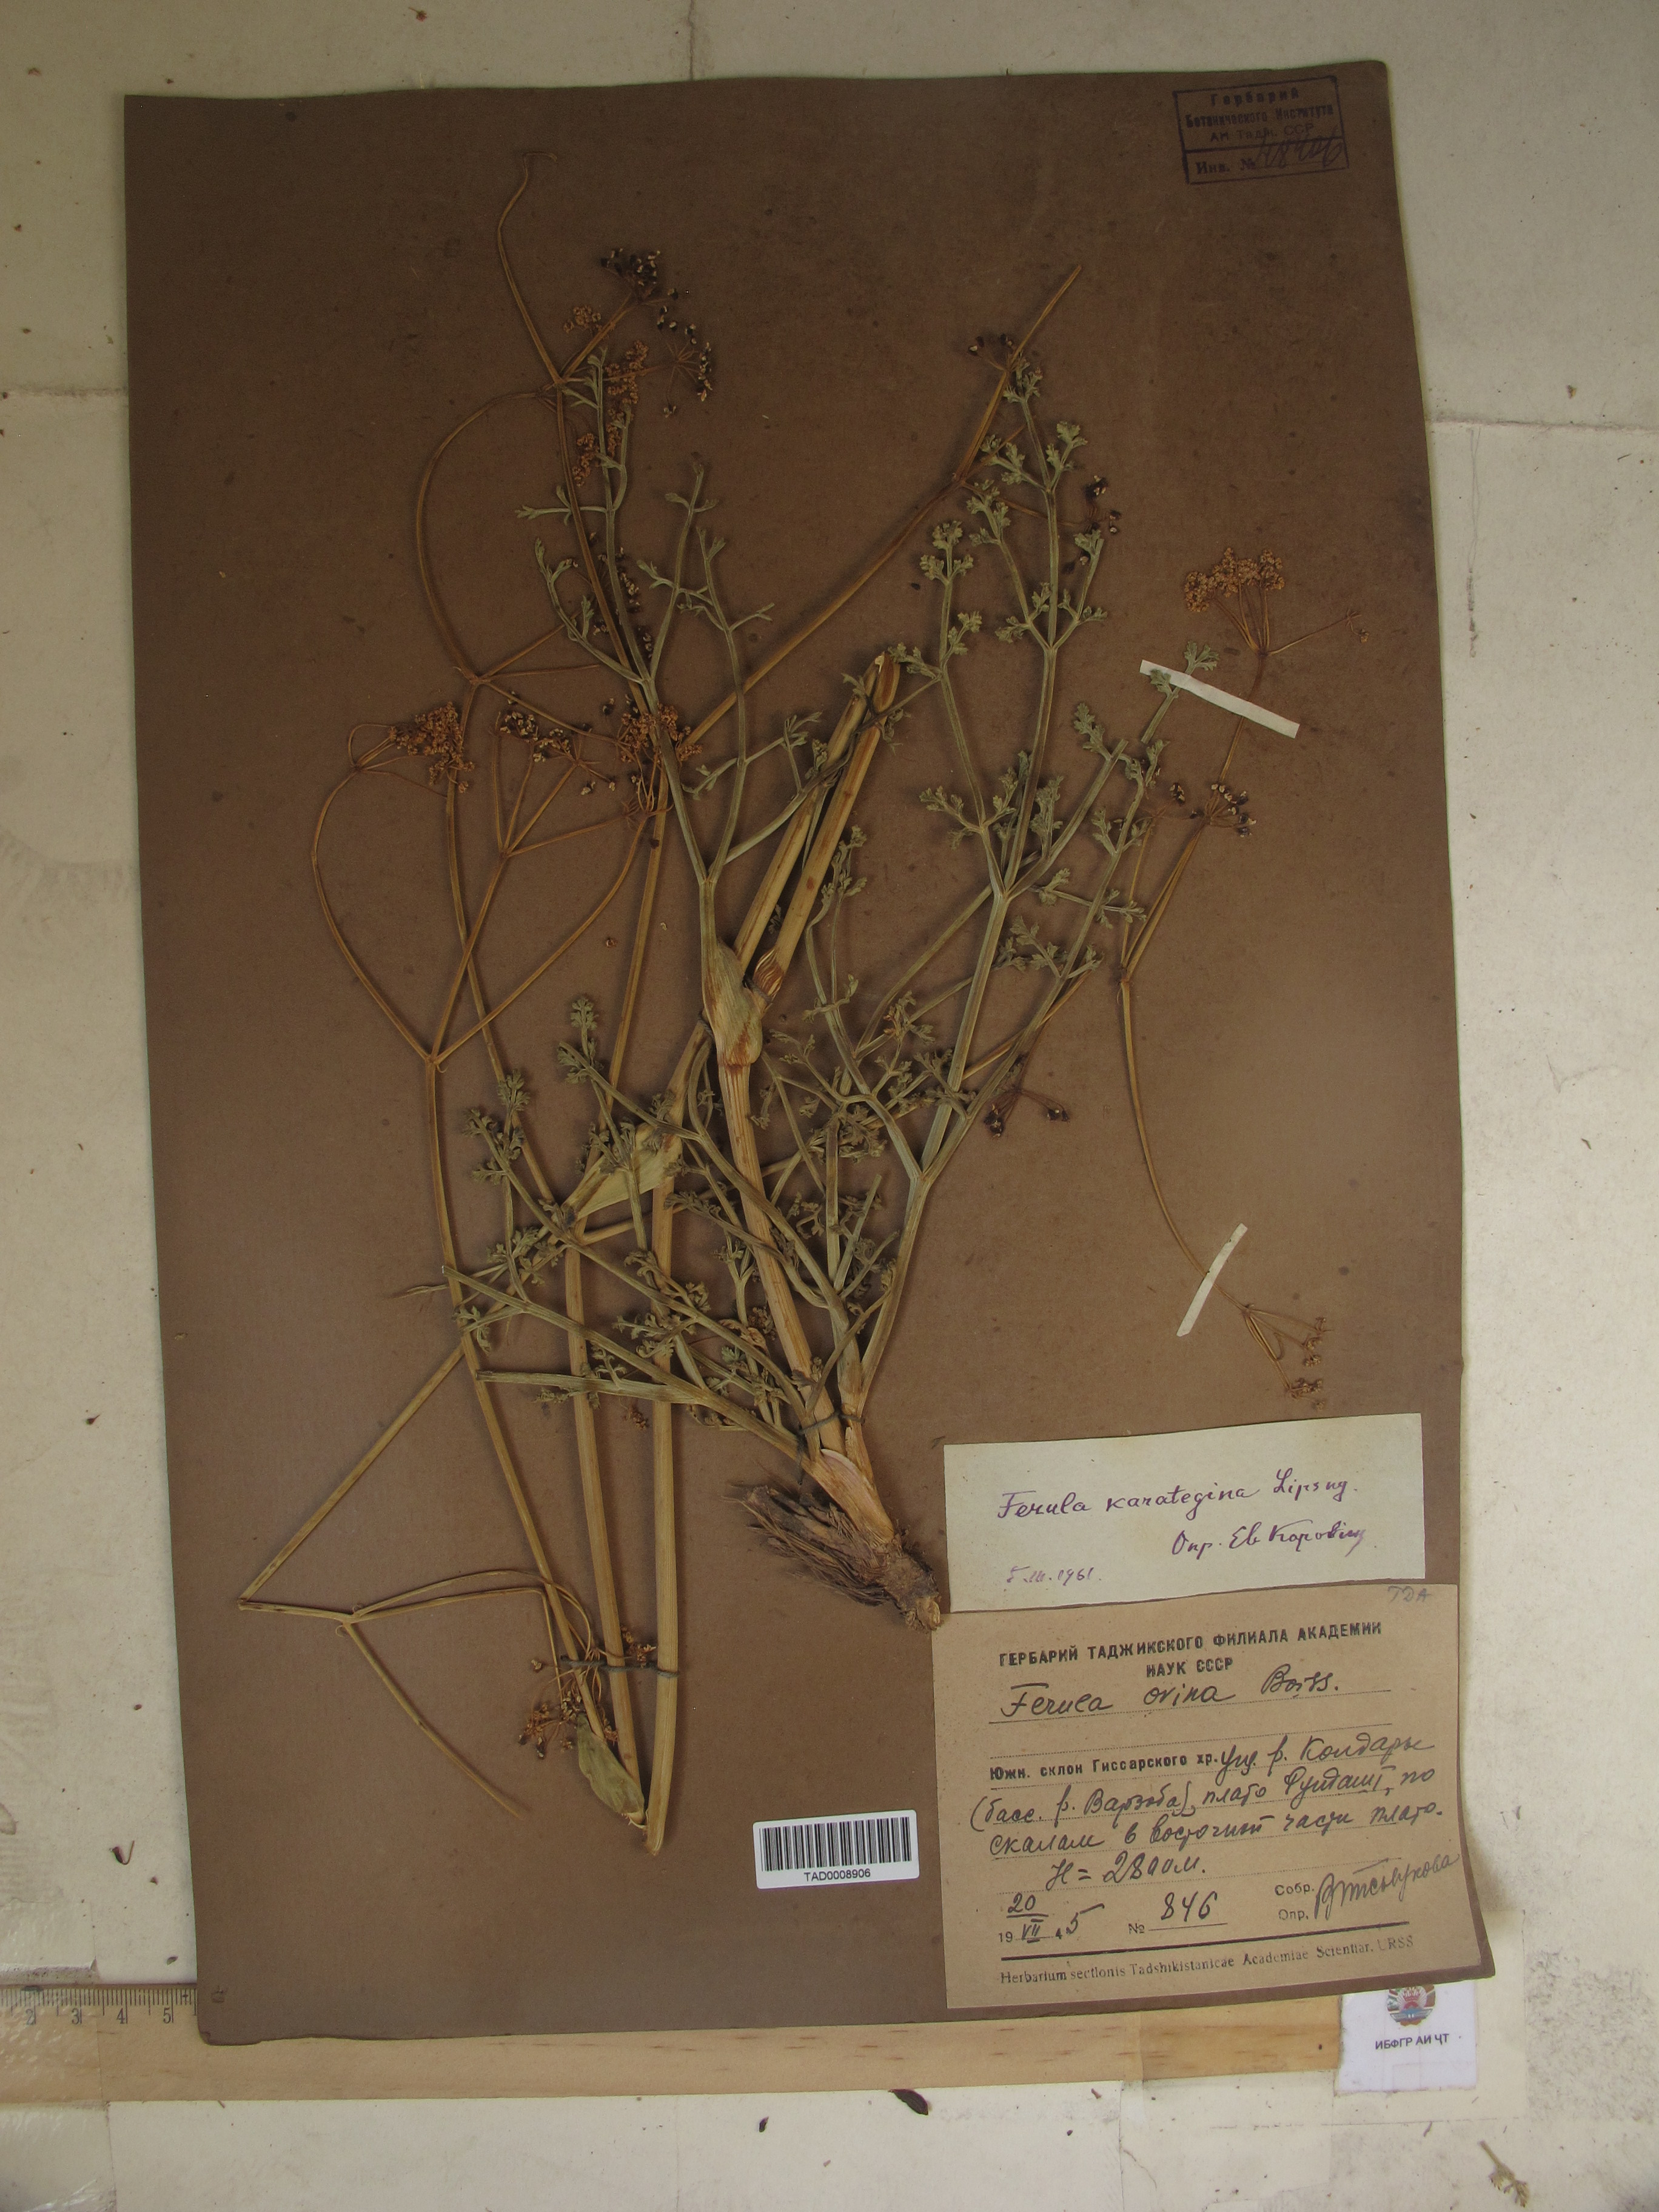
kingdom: Plantae
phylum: Tracheophyta
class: Magnoliopsida
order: Apiales
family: Apiaceae
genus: Ferula
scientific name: Ferula karategina
